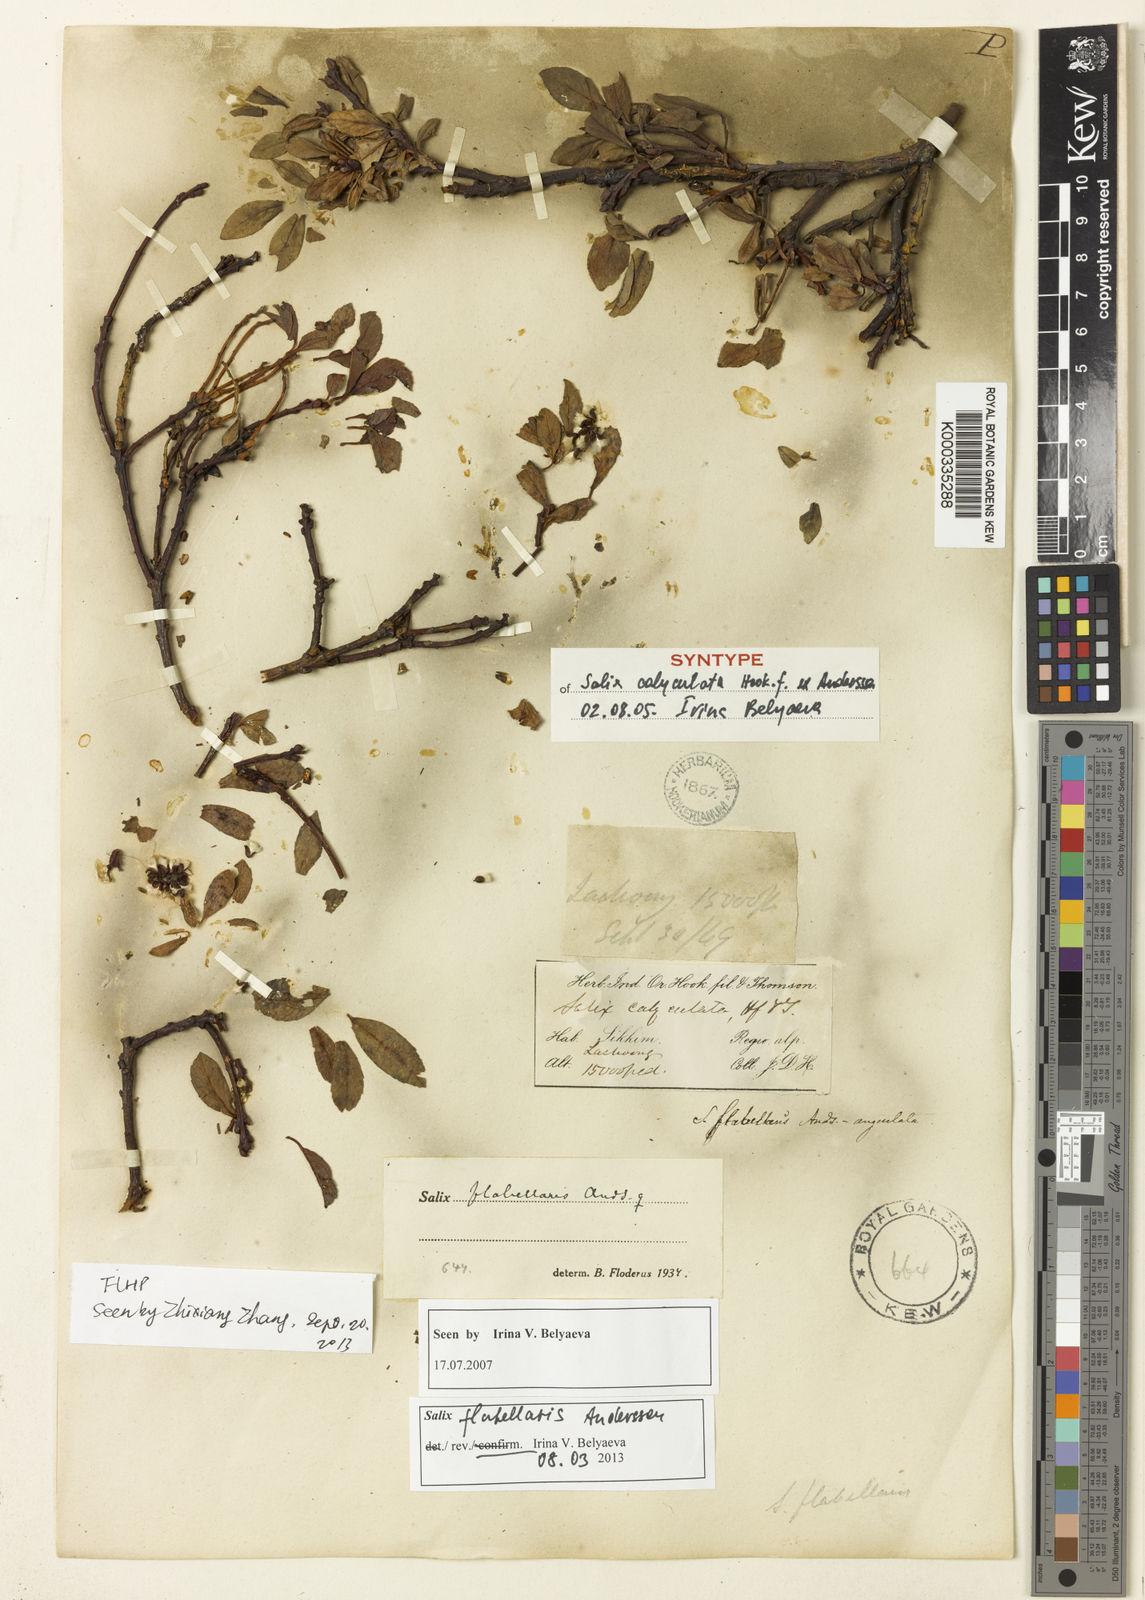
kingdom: Plantae
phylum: Tracheophyta
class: Magnoliopsida
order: Malpighiales
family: Salicaceae
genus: Salix
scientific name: Salix calyculata
